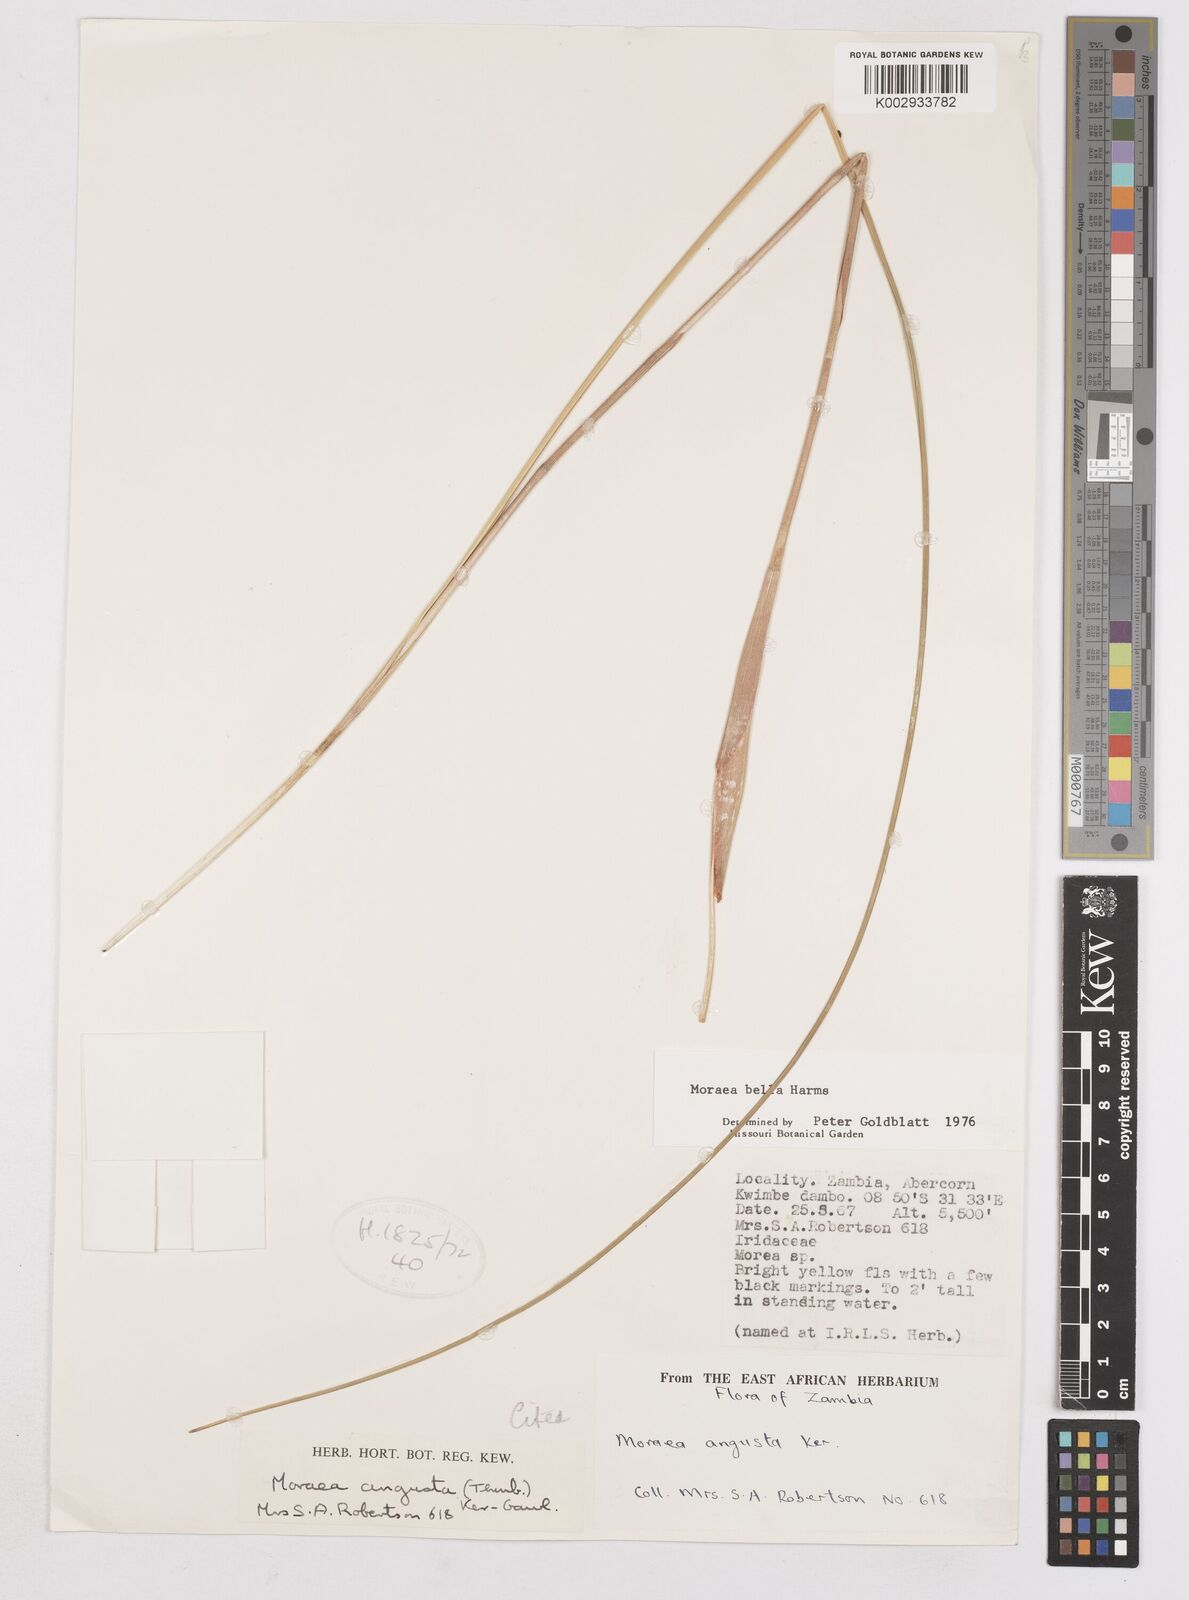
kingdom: Plantae
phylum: Tracheophyta
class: Liliopsida
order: Asparagales
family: Iridaceae
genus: Moraea
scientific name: Moraea verdickii
